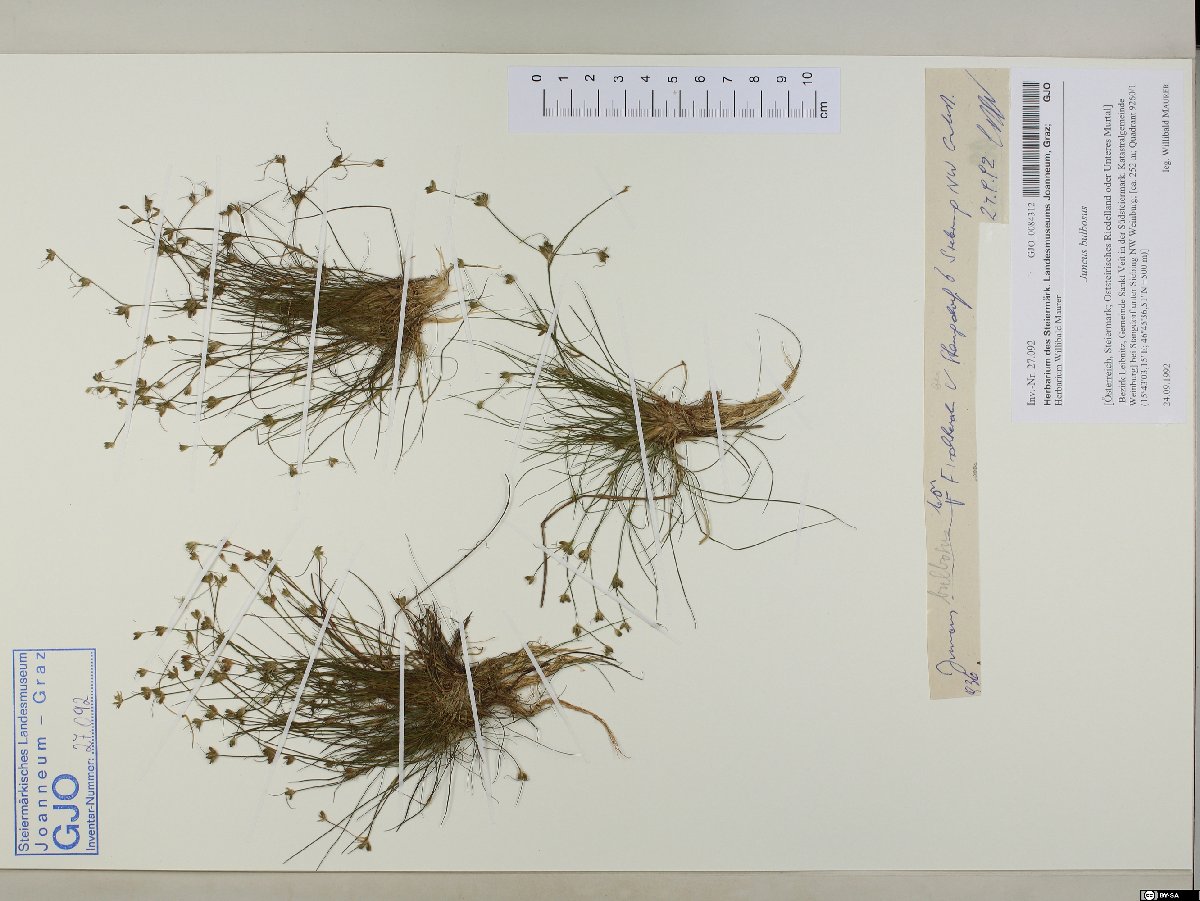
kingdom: Plantae
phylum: Tracheophyta
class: Liliopsida
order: Poales
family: Juncaceae
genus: Juncus
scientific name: Juncus bulbosus
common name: Bulbous rush
